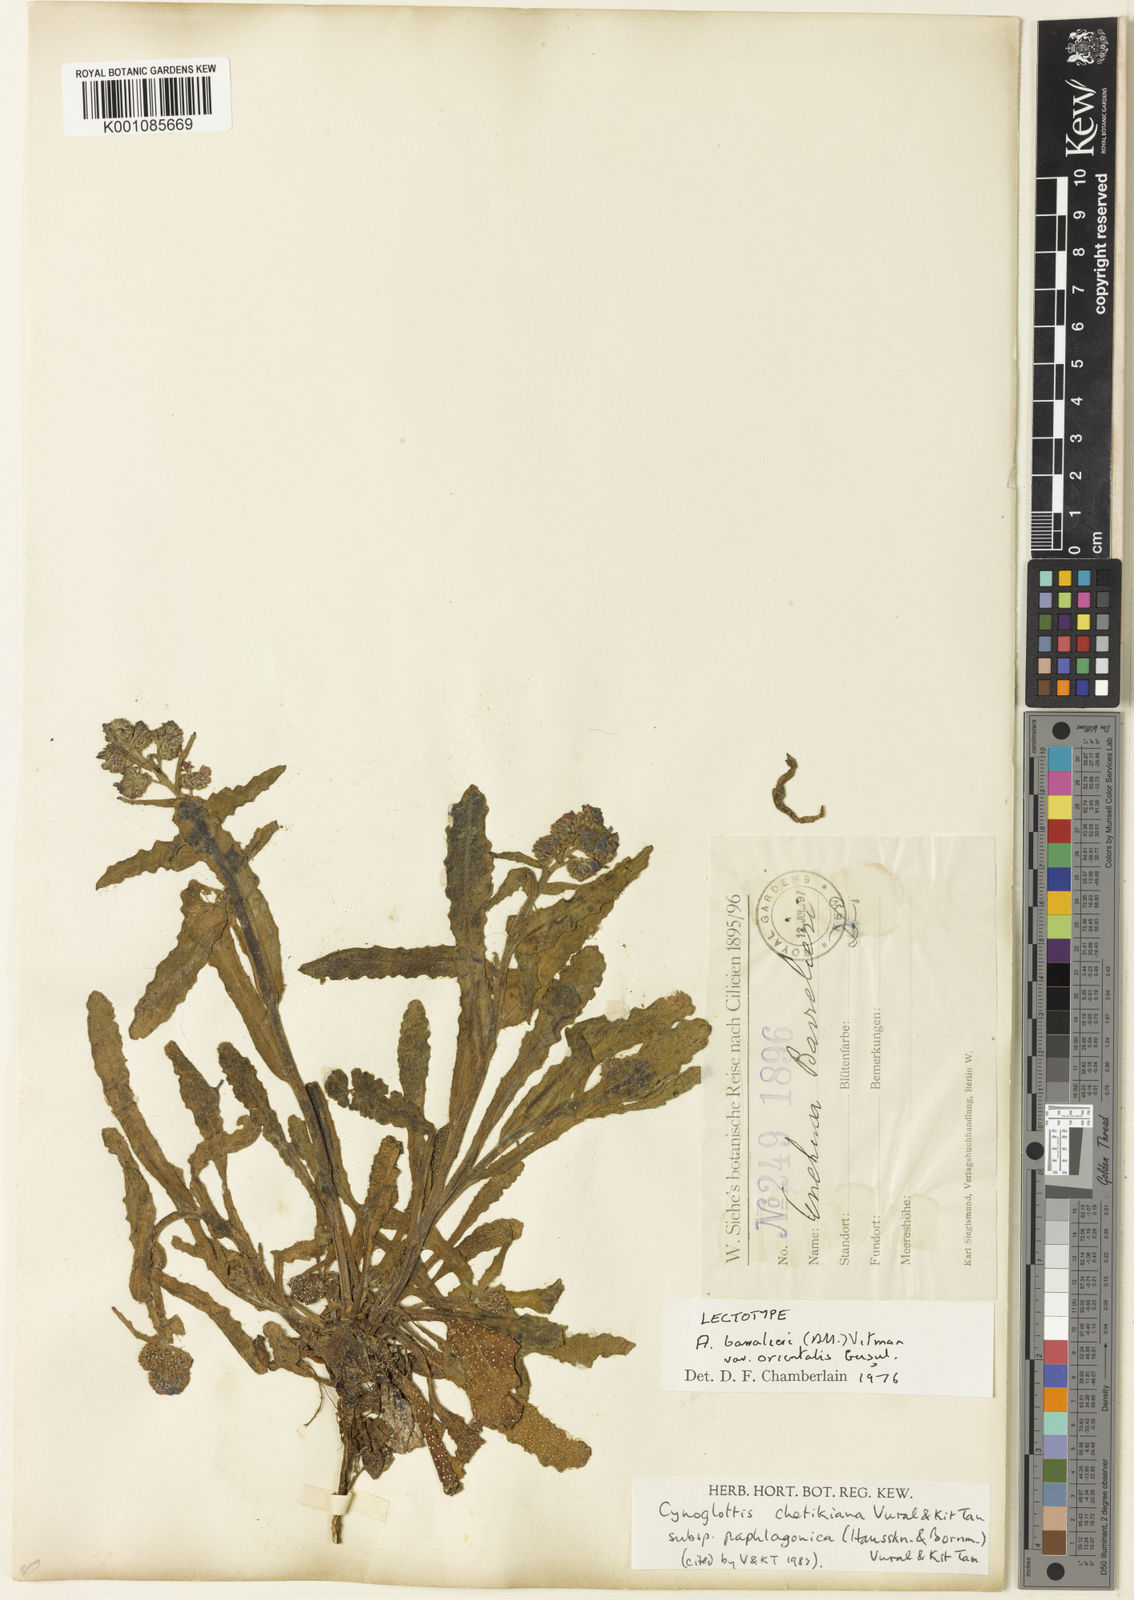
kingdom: Plantae
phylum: Tracheophyta
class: Magnoliopsida
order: Boraginales
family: Boraginaceae
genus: Cynoglottis
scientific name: Cynoglottis chetikiana
